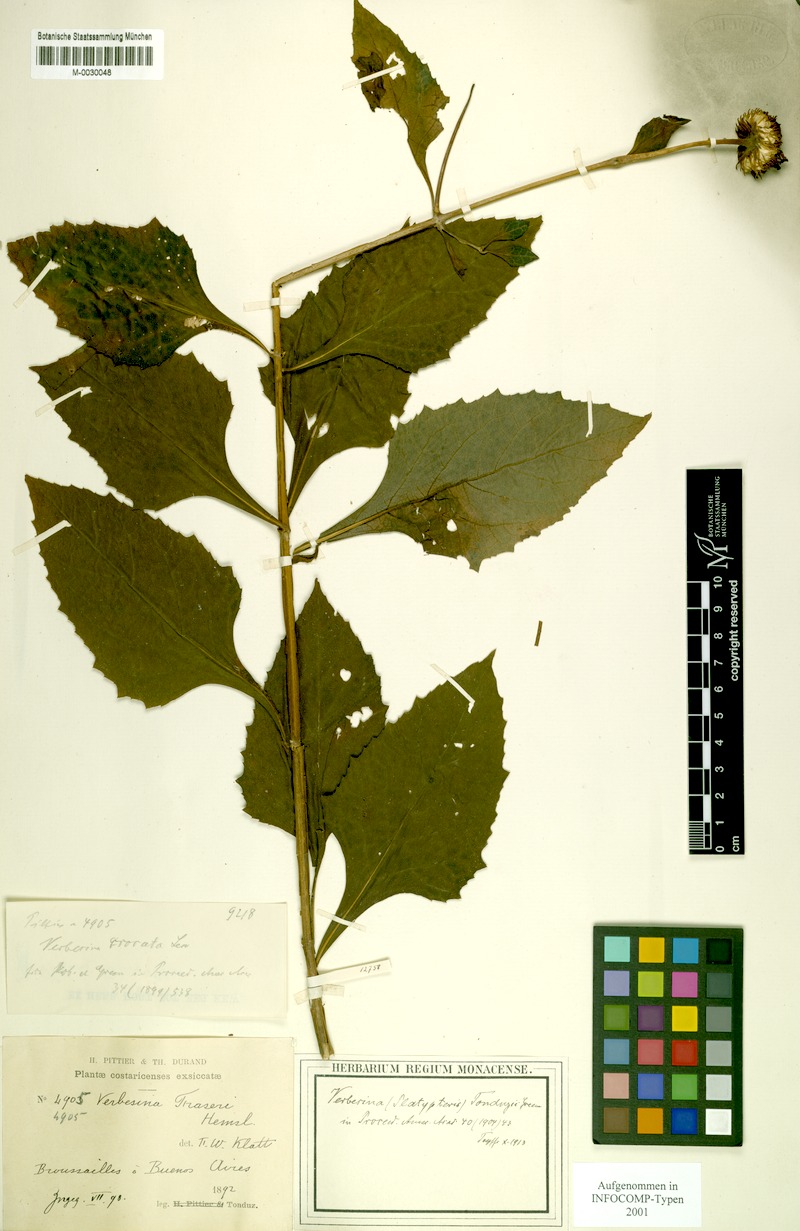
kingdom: Plantae
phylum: Tracheophyta
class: Magnoliopsida
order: Asterales
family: Asteraceae
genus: Verbesina
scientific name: Verbesina ovatifolia
